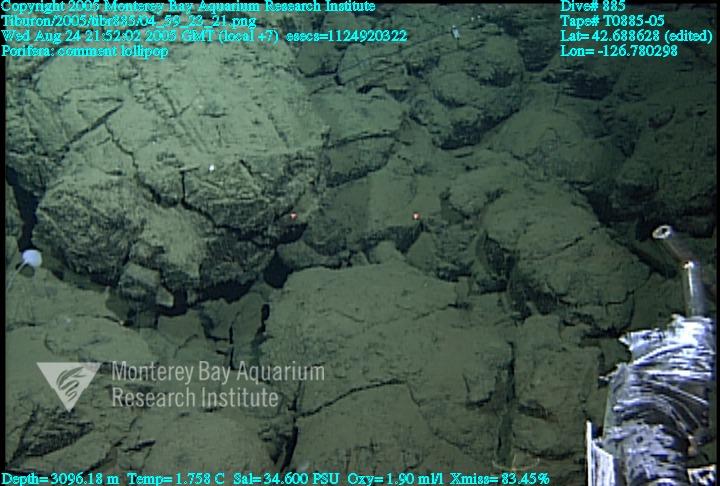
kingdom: Animalia
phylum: Porifera
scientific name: Porifera
